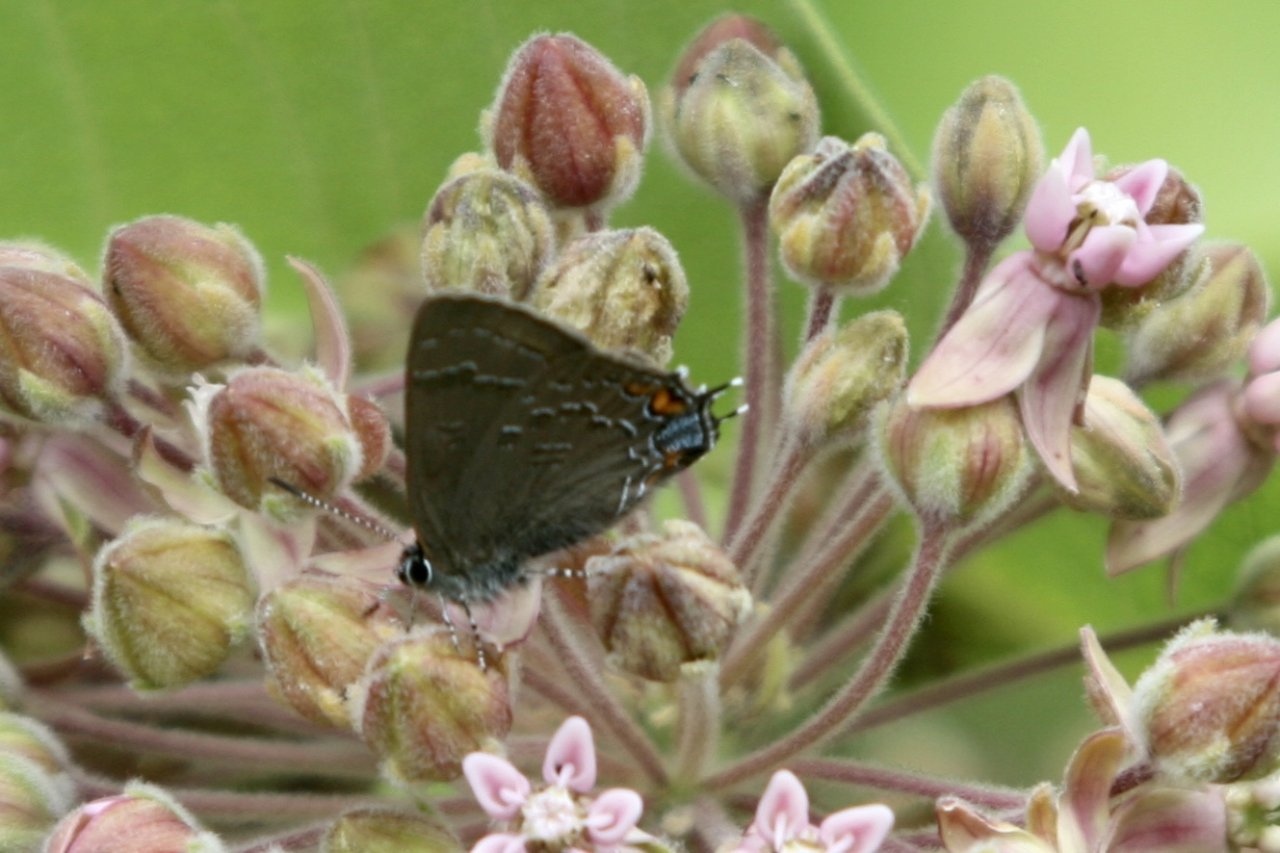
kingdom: Animalia
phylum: Arthropoda
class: Insecta
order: Lepidoptera
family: Lycaenidae
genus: Satyrium
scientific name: Satyrium calanus
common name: Banded Hairstreak
